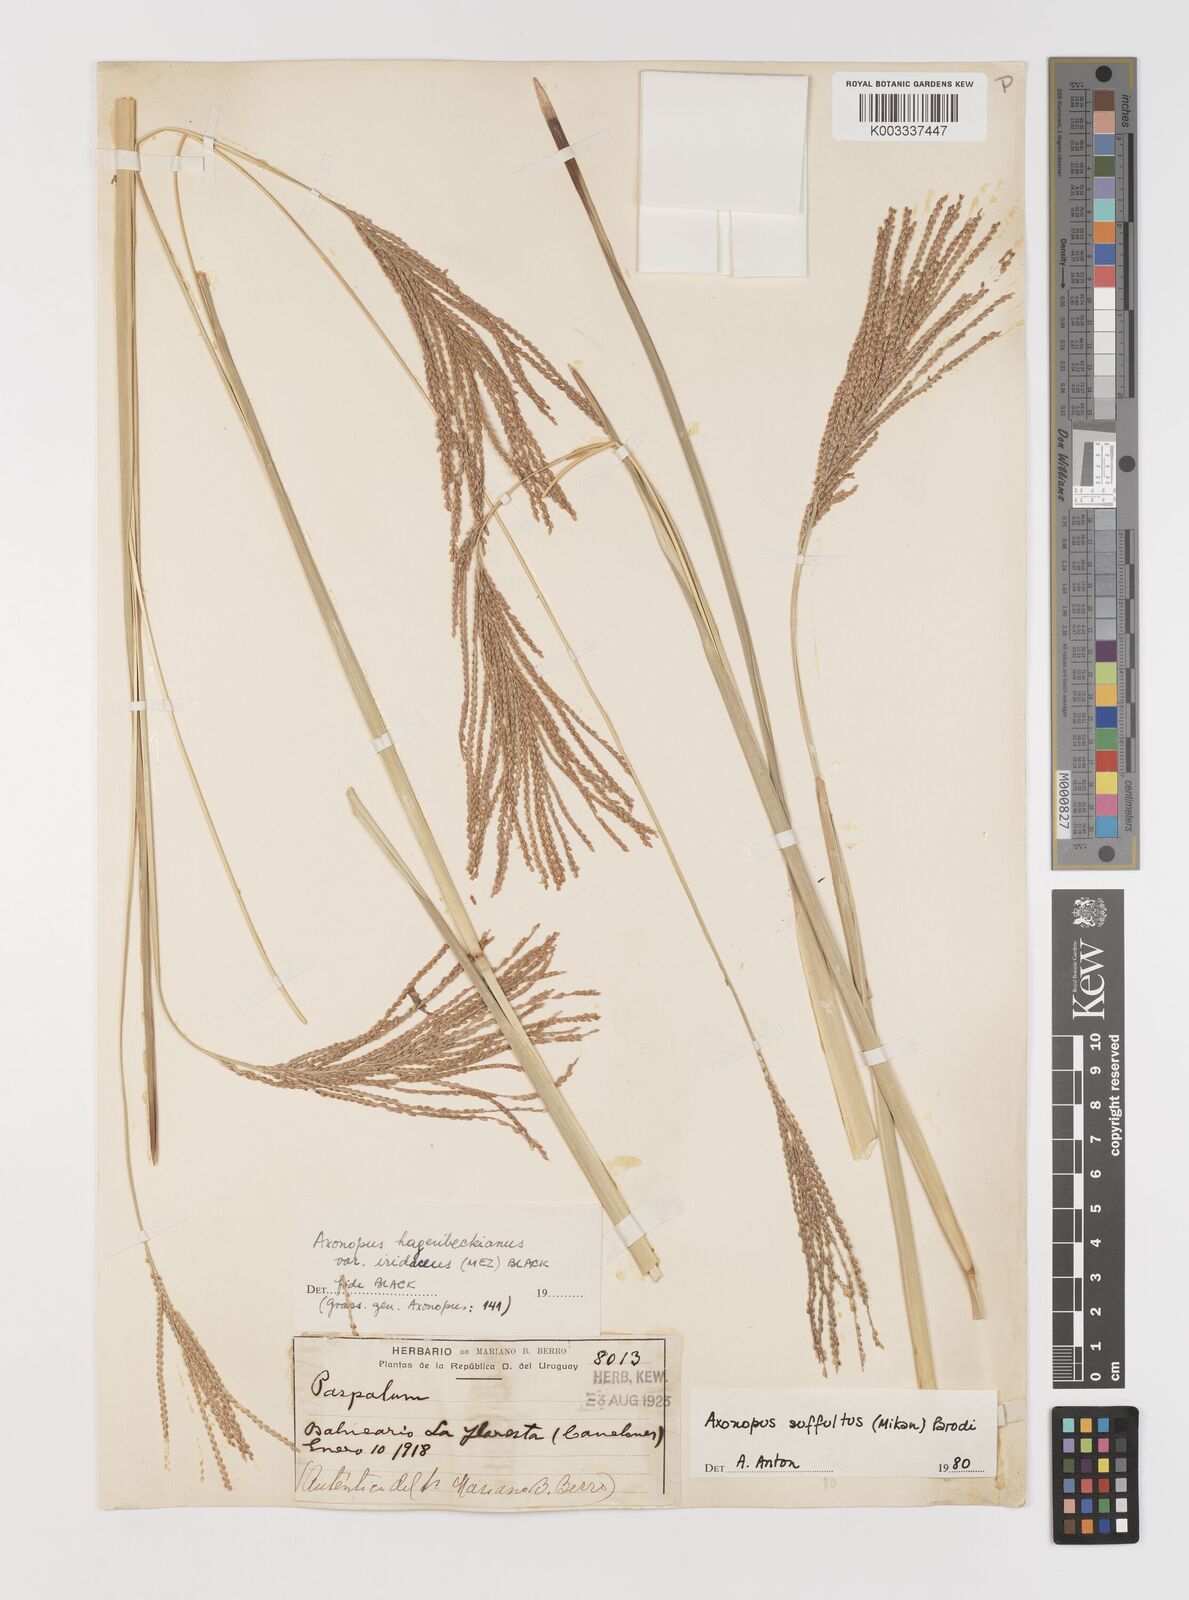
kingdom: Plantae
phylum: Tracheophyta
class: Liliopsida
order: Poales
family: Poaceae
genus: Axonopus
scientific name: Axonopus suffultus
